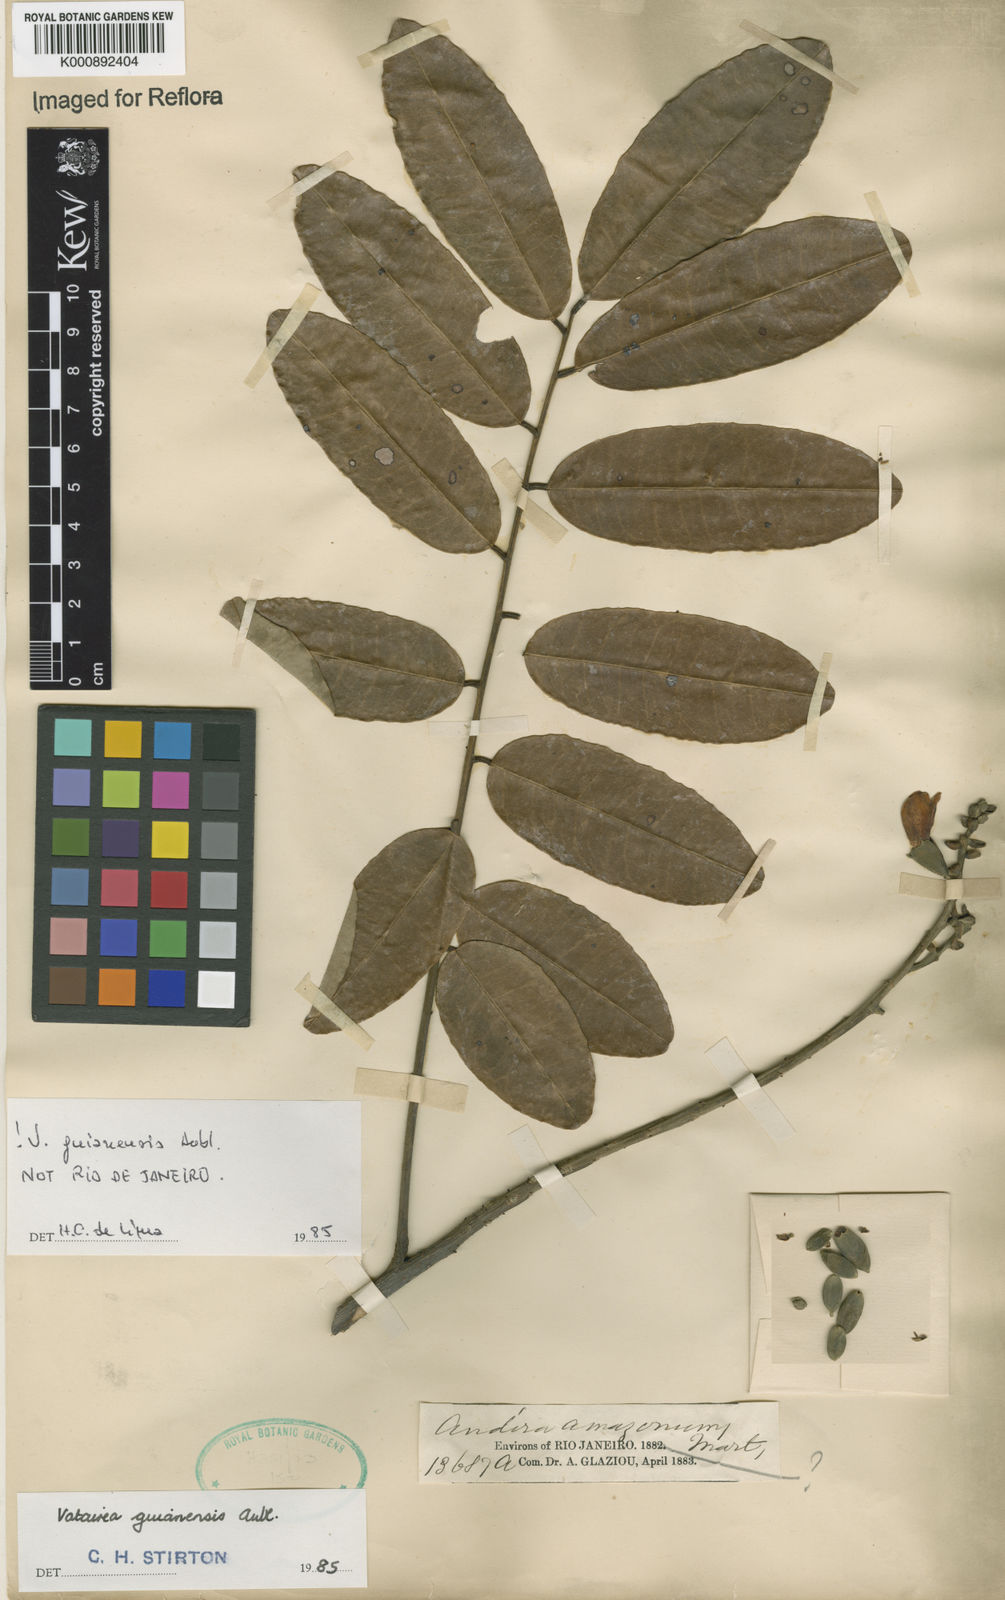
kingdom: Plantae
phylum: Tracheophyta
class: Magnoliopsida
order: Fabales
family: Fabaceae
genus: Vatairea
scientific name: Vatairea guianensis
